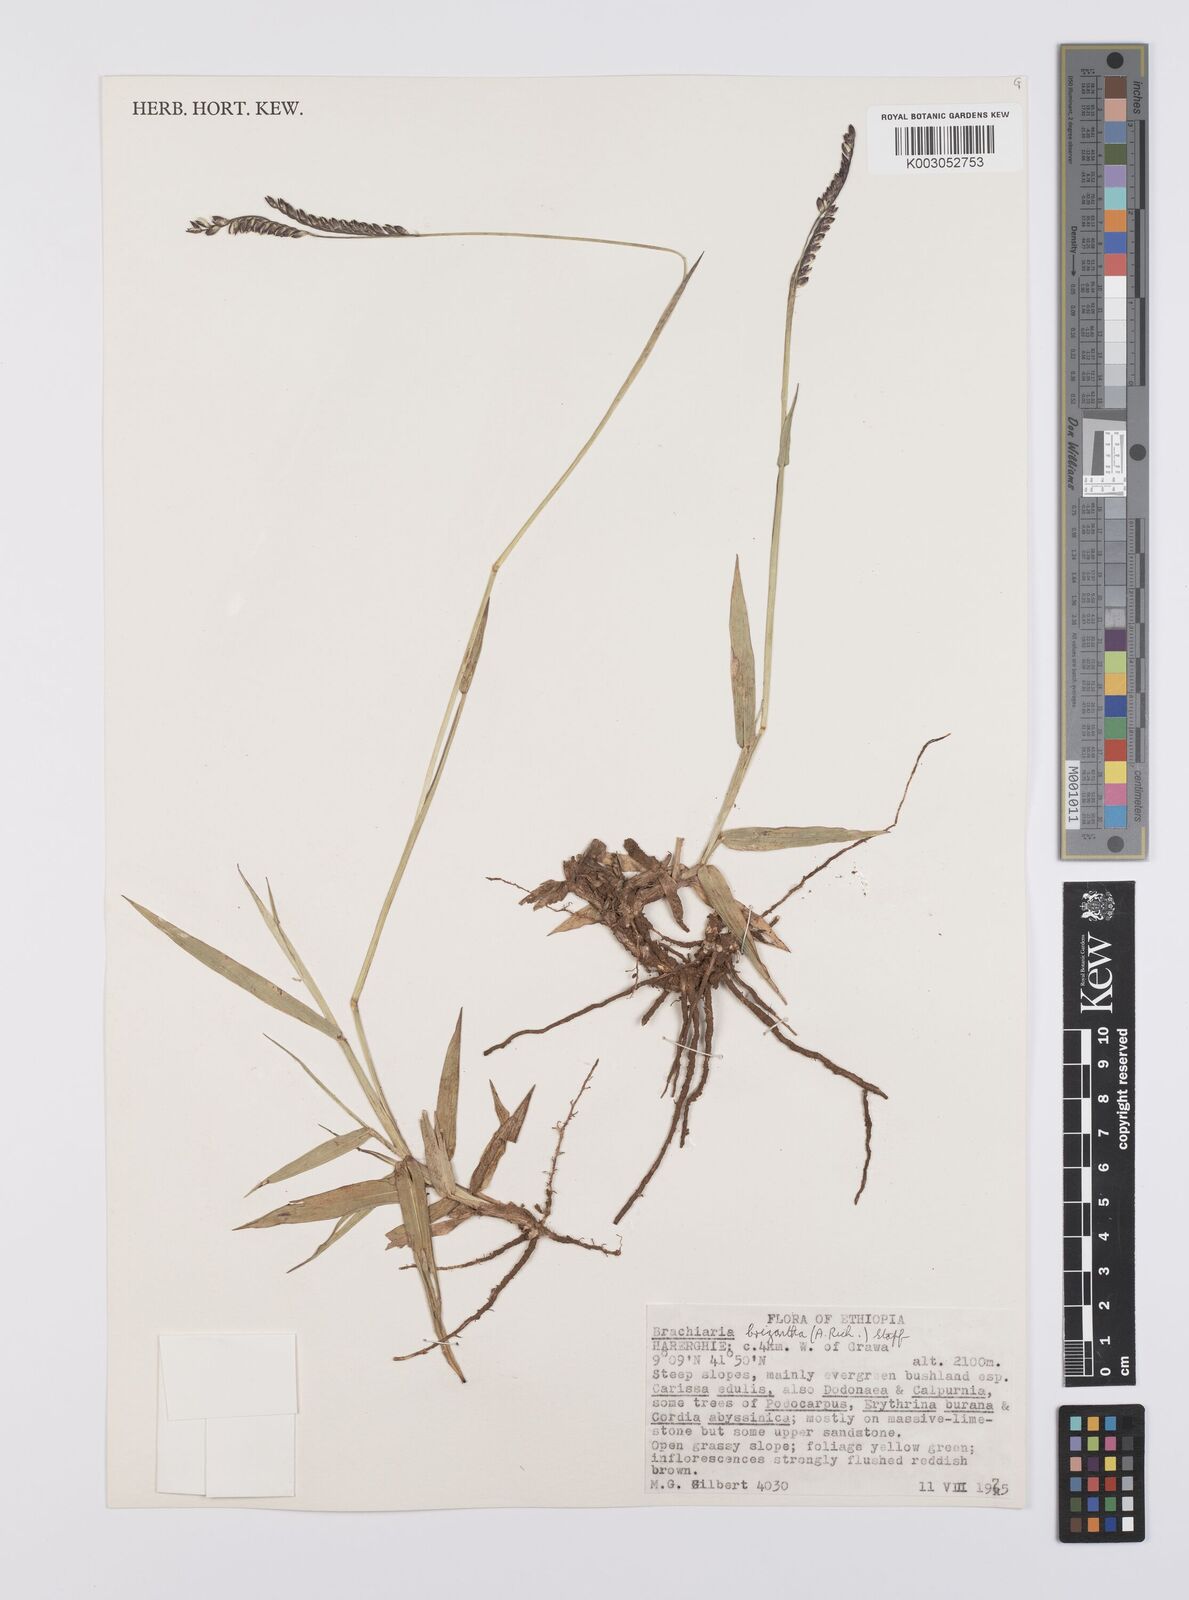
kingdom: Plantae
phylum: Tracheophyta
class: Liliopsida
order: Poales
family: Poaceae
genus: Urochloa
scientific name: Urochloa brizantha
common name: Palisade signalgrass
